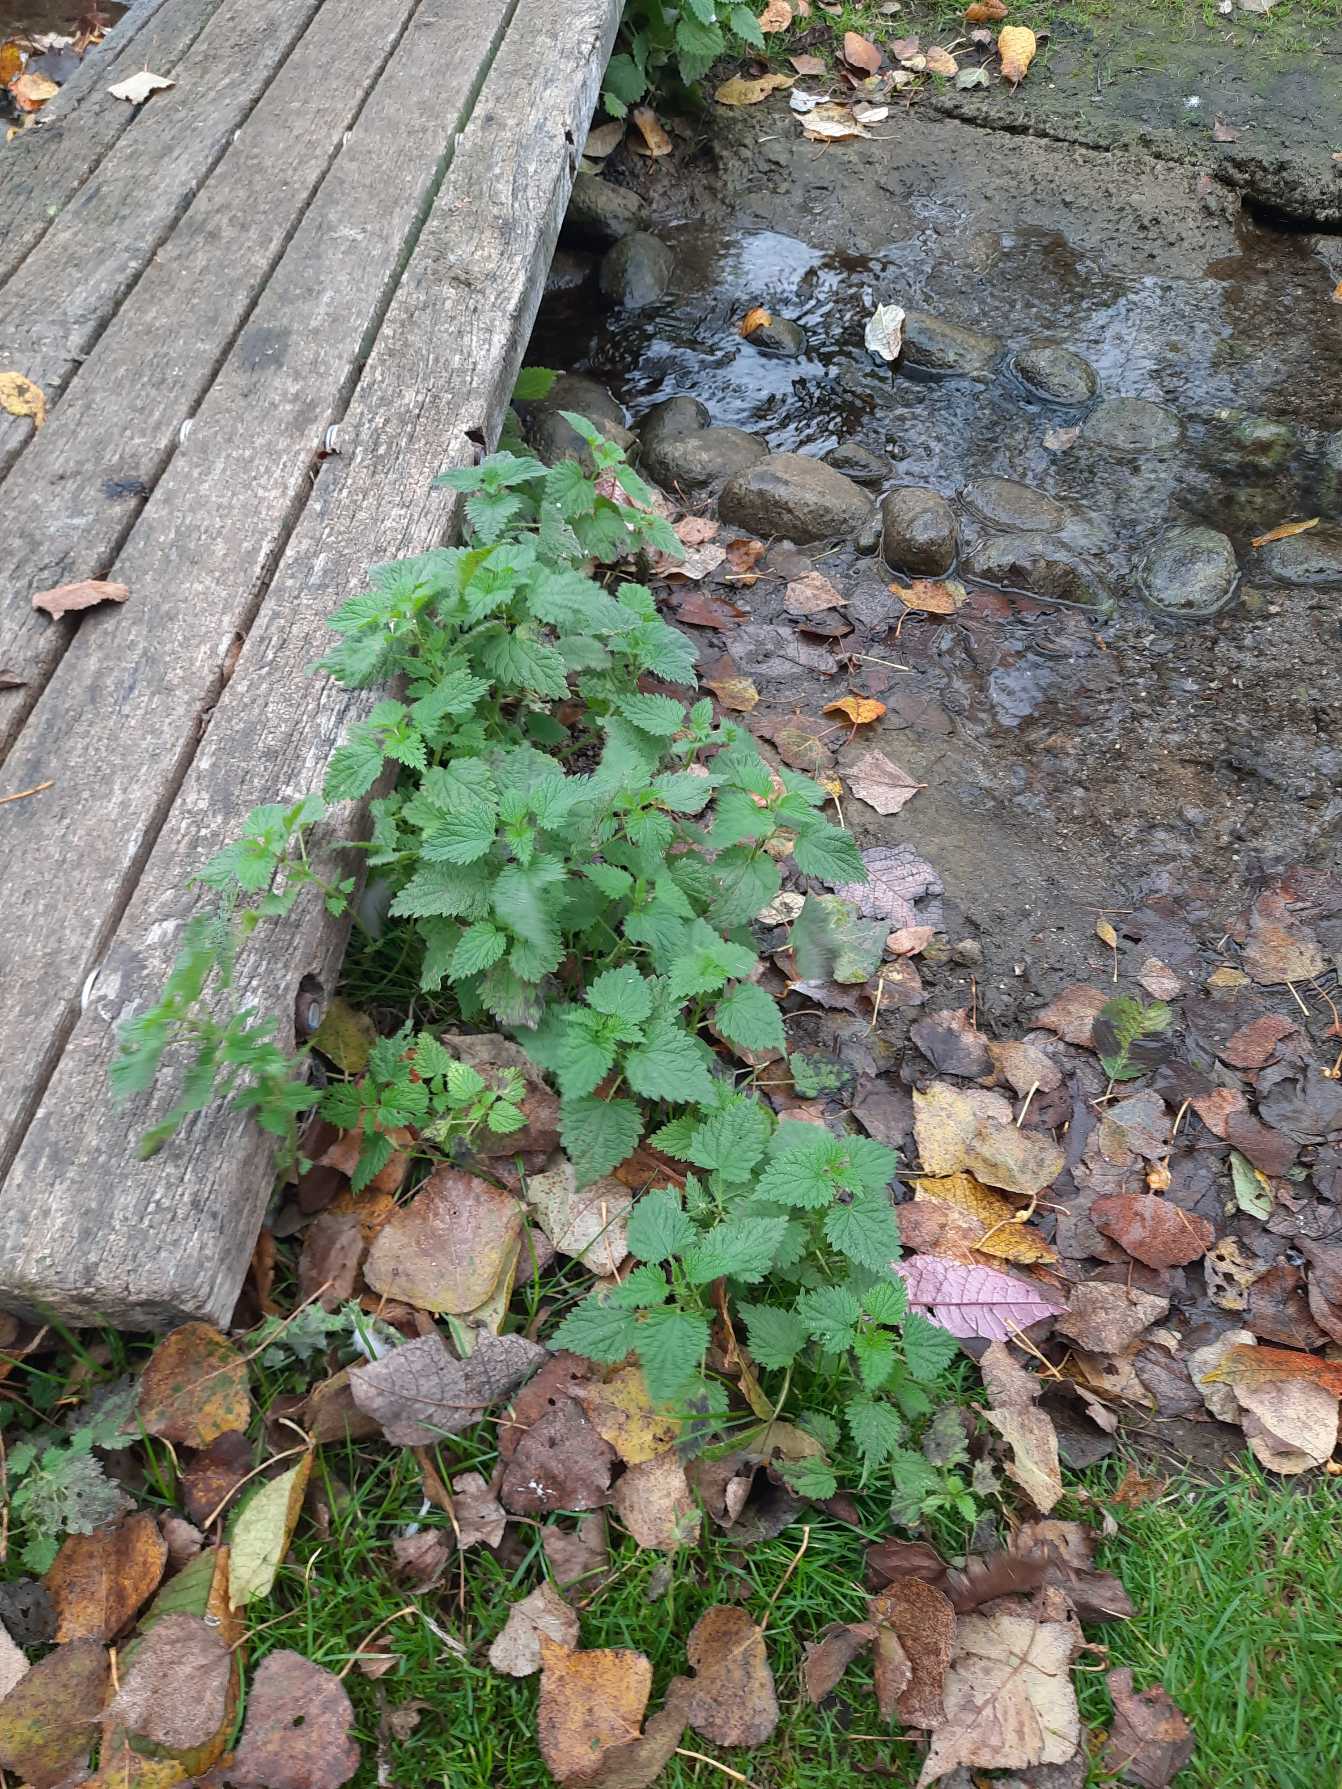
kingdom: Plantae
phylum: Tracheophyta
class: Magnoliopsida
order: Rosales
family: Urticaceae
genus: Urtica
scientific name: Urtica dioica
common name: Stor nælde
